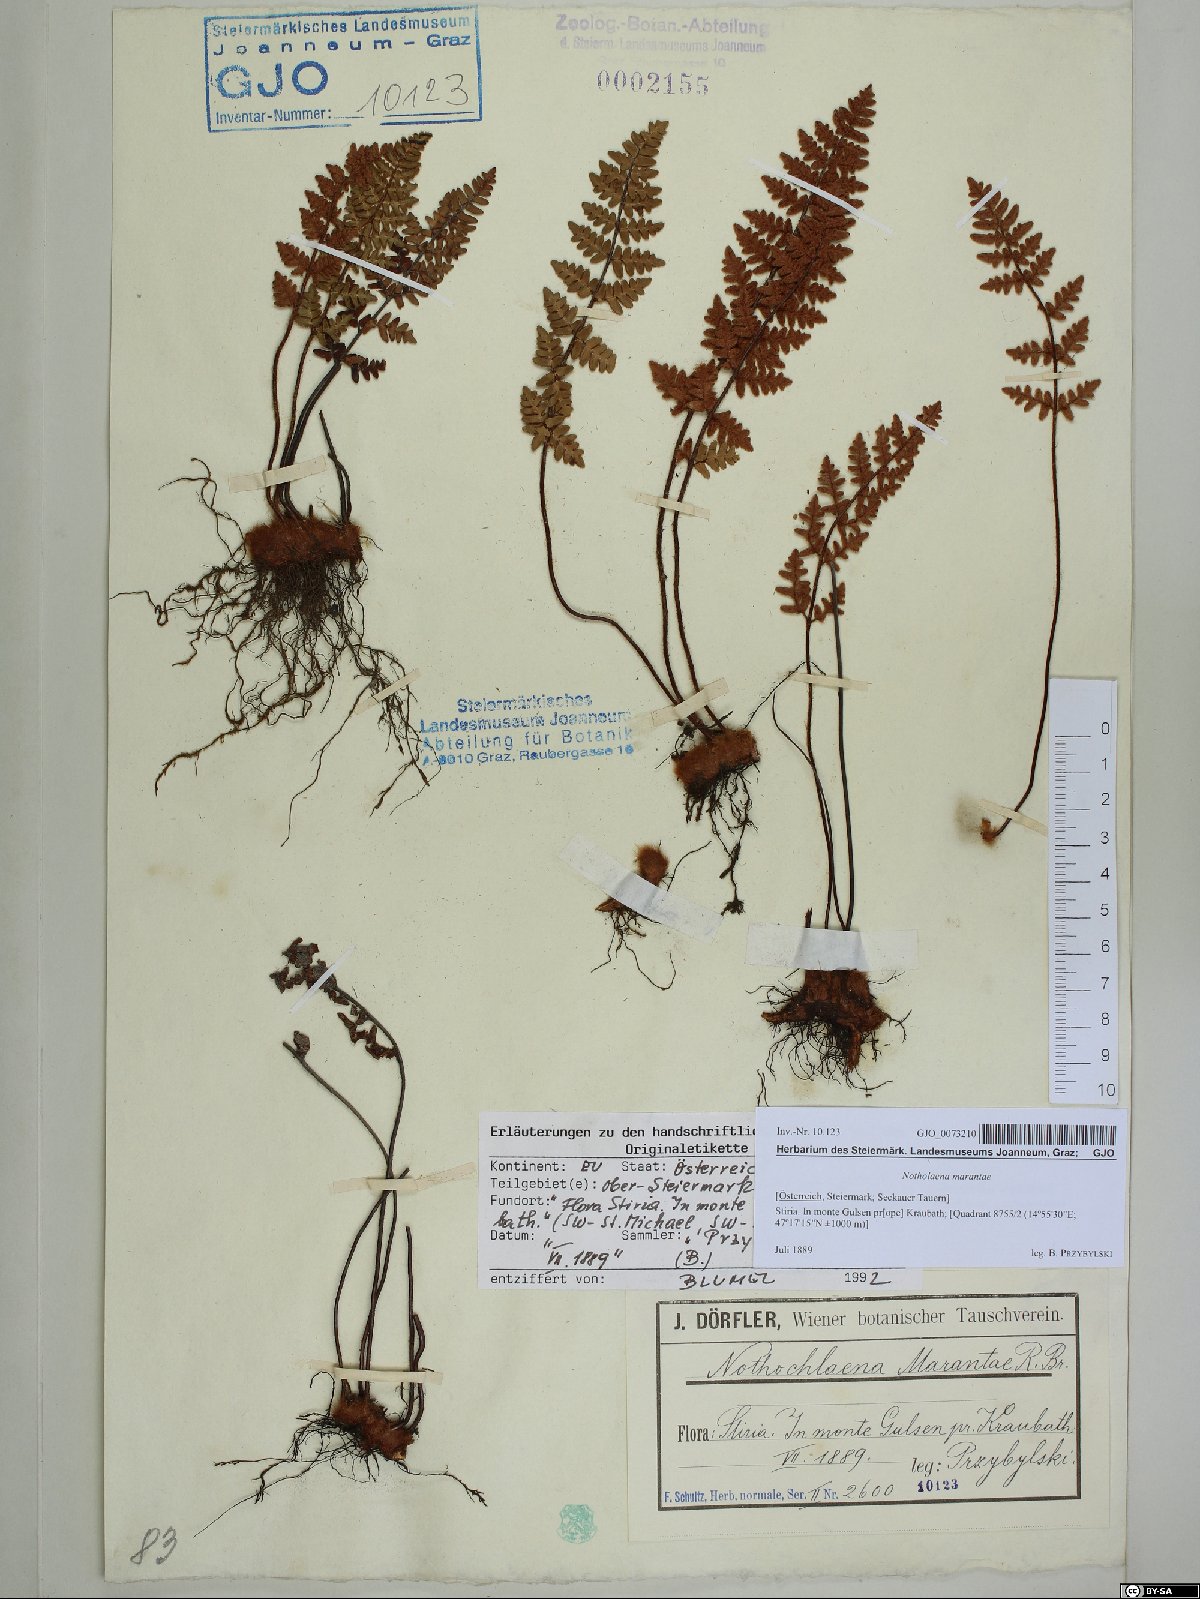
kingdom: Plantae
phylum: Tracheophyta
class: Polypodiopsida
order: Polypodiales
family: Pteridaceae
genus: Paragymnopteris
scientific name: Paragymnopteris marantae
